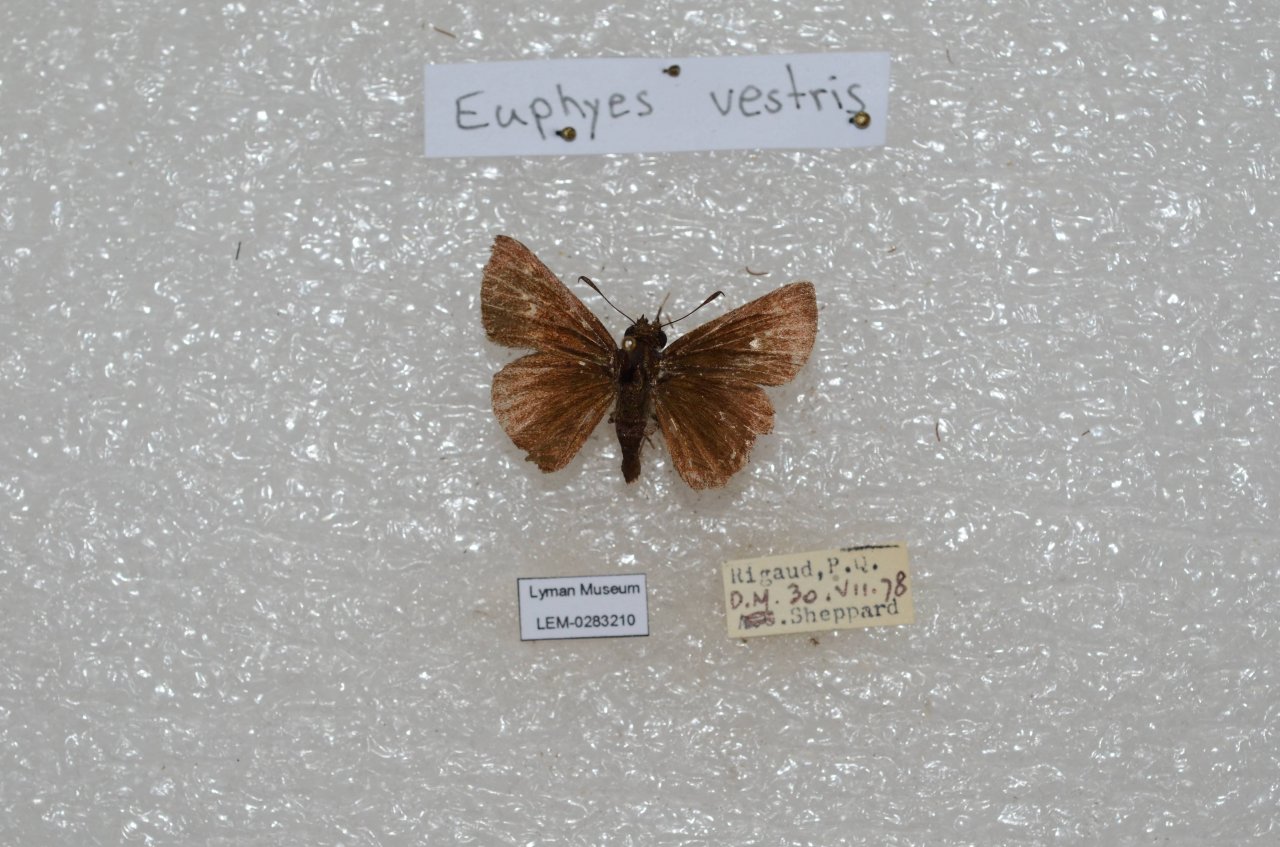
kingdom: Animalia
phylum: Arthropoda
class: Insecta
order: Lepidoptera
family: Hesperiidae
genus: Euphyes
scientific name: Euphyes vestris
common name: Dun Skipper
